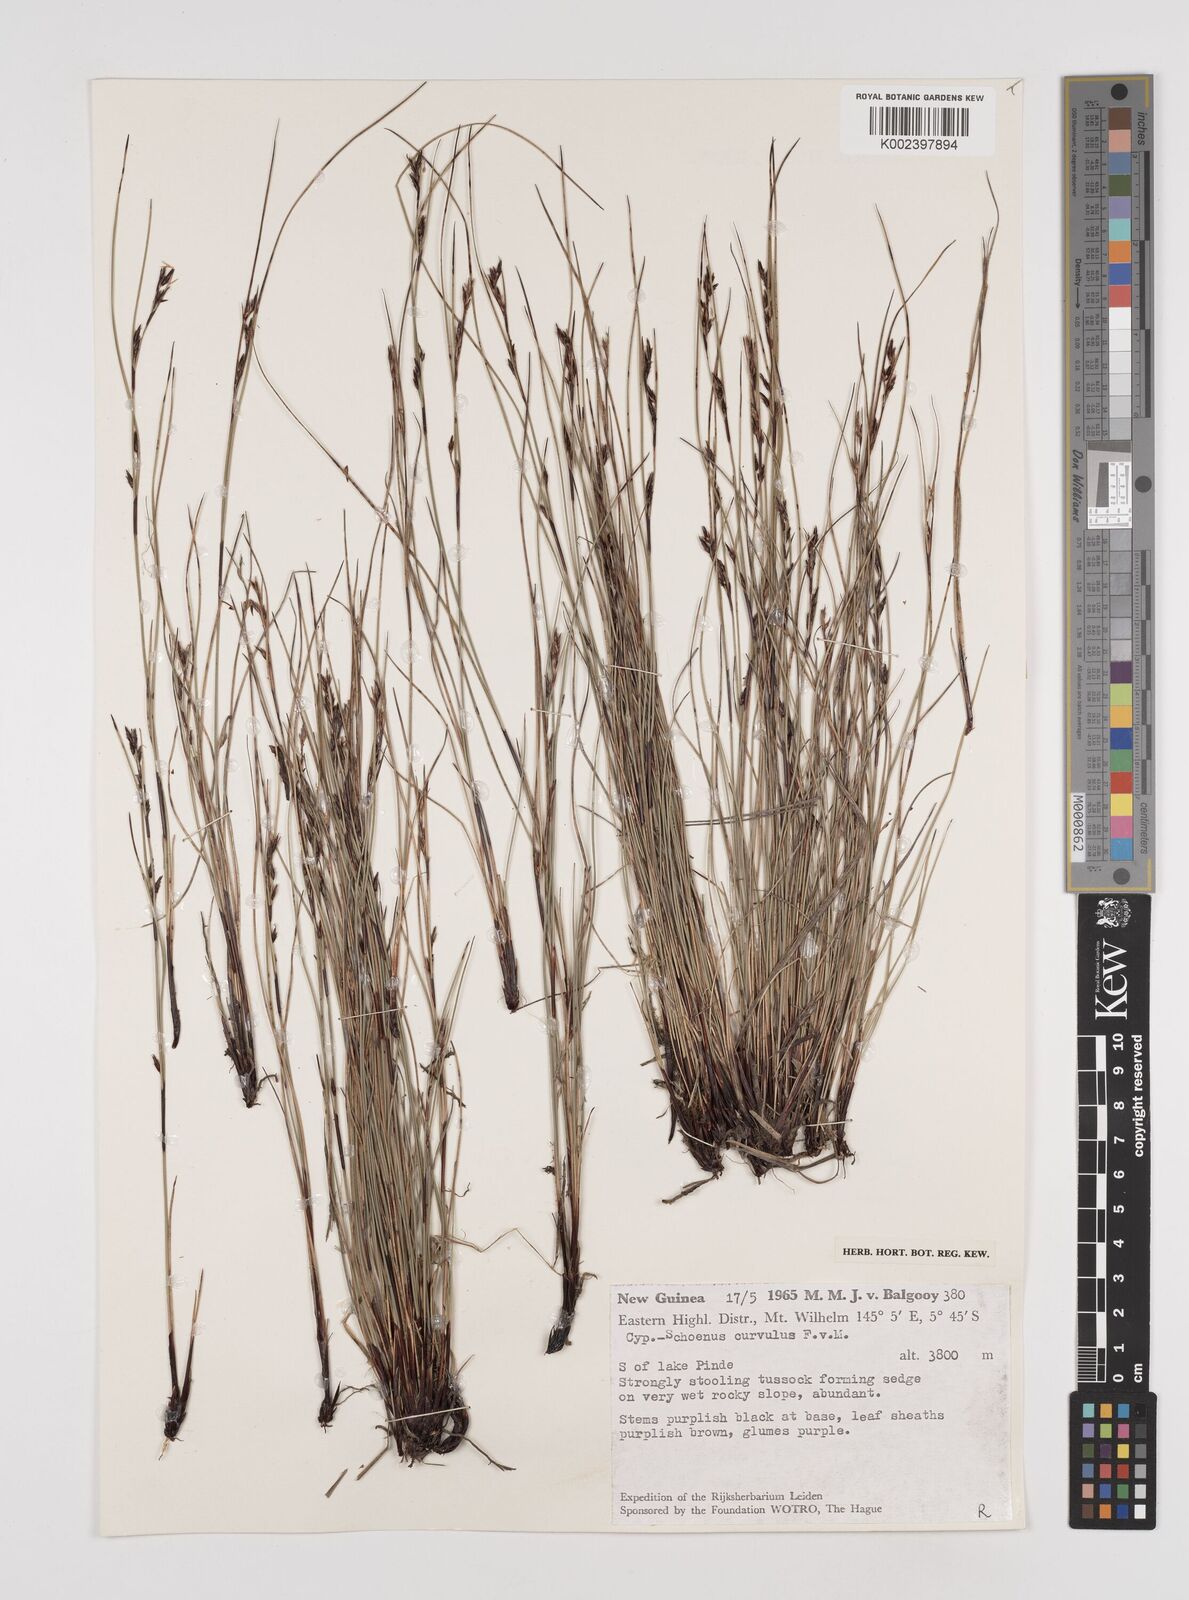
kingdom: Plantae
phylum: Tracheophyta
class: Liliopsida
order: Poales
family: Cyperaceae
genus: Schoenus
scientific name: Schoenus curvulus
